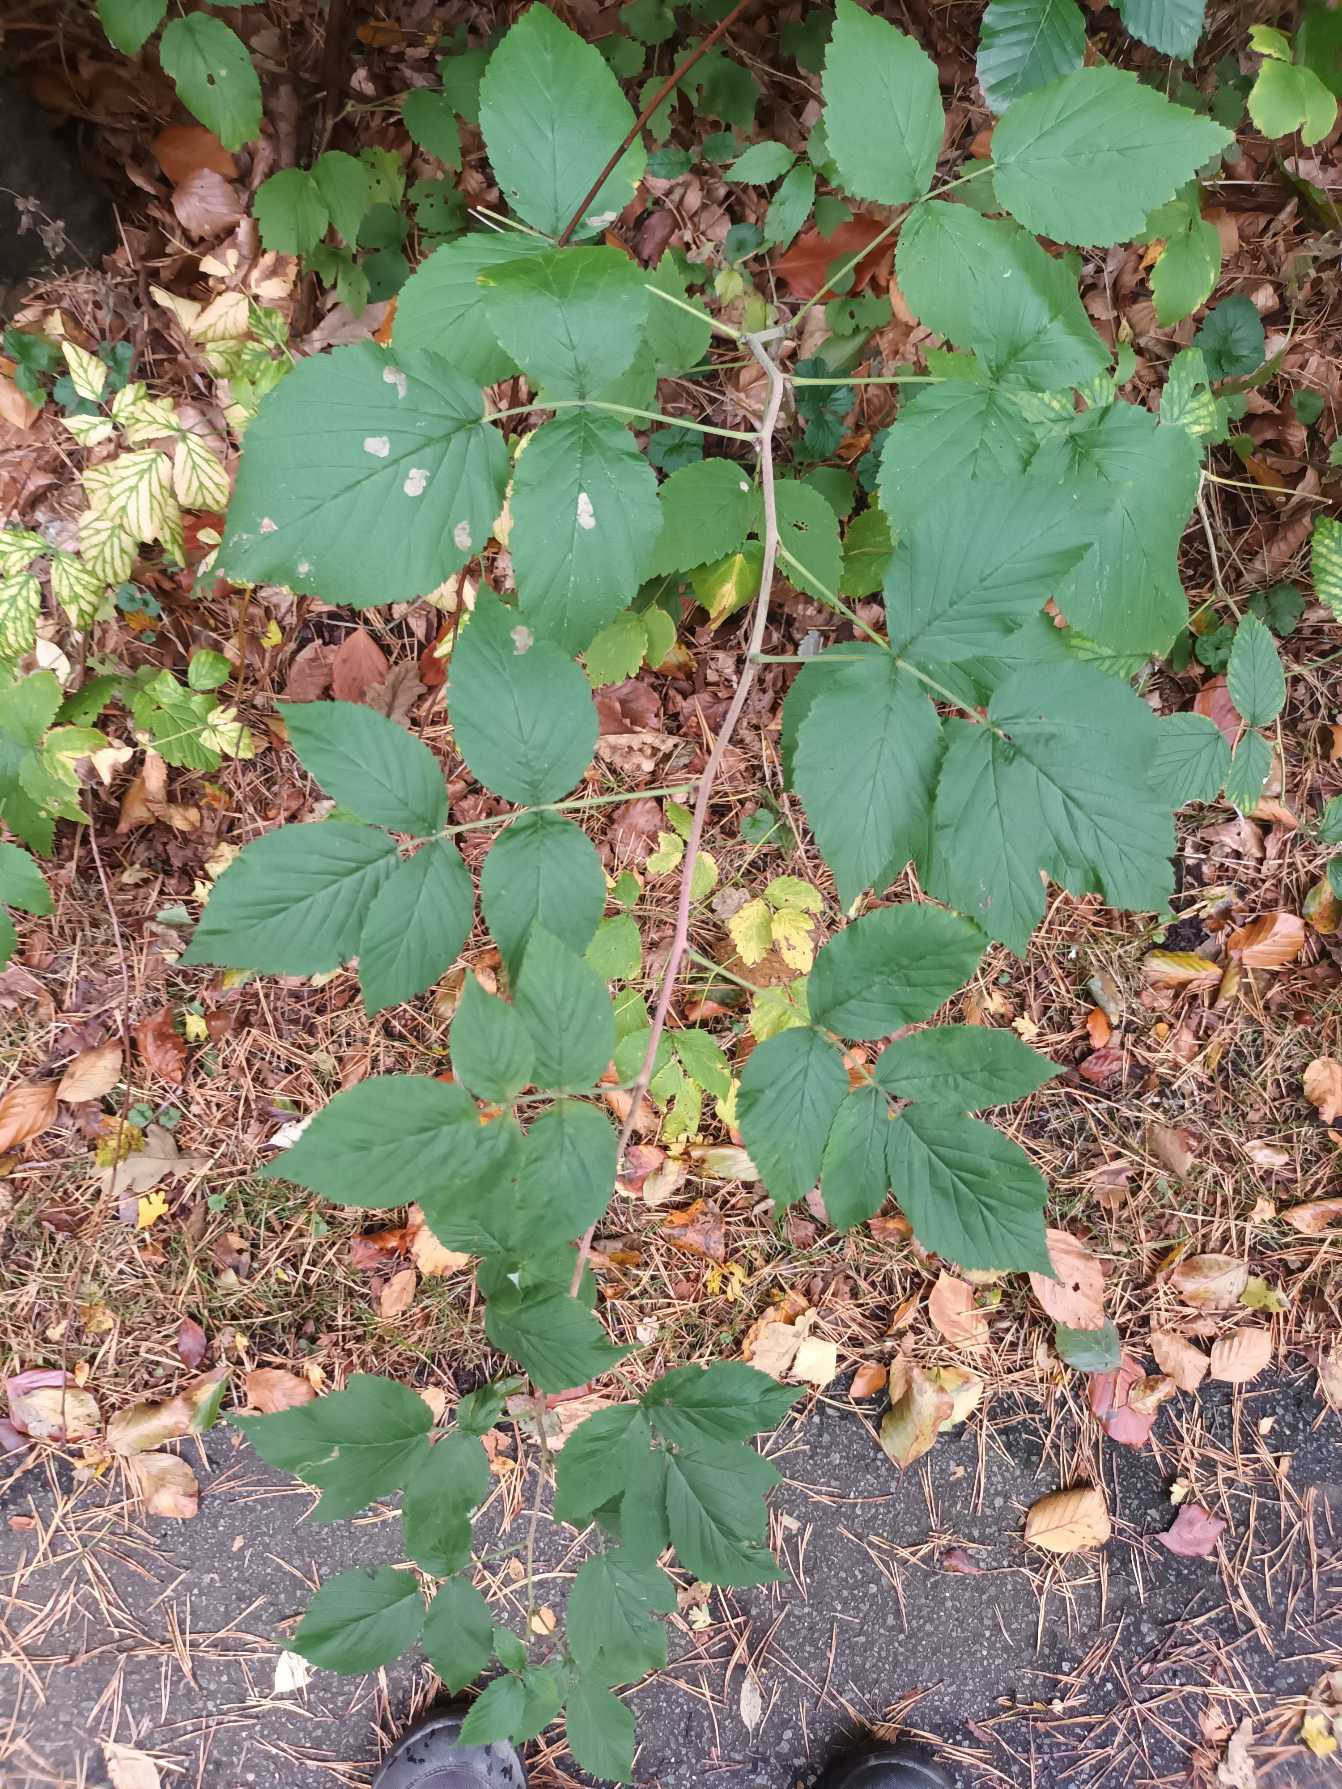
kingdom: Plantae
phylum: Tracheophyta
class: Magnoliopsida
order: Rosales
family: Rosaceae
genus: Rubus
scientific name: Rubus idaeus
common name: Hindbær
